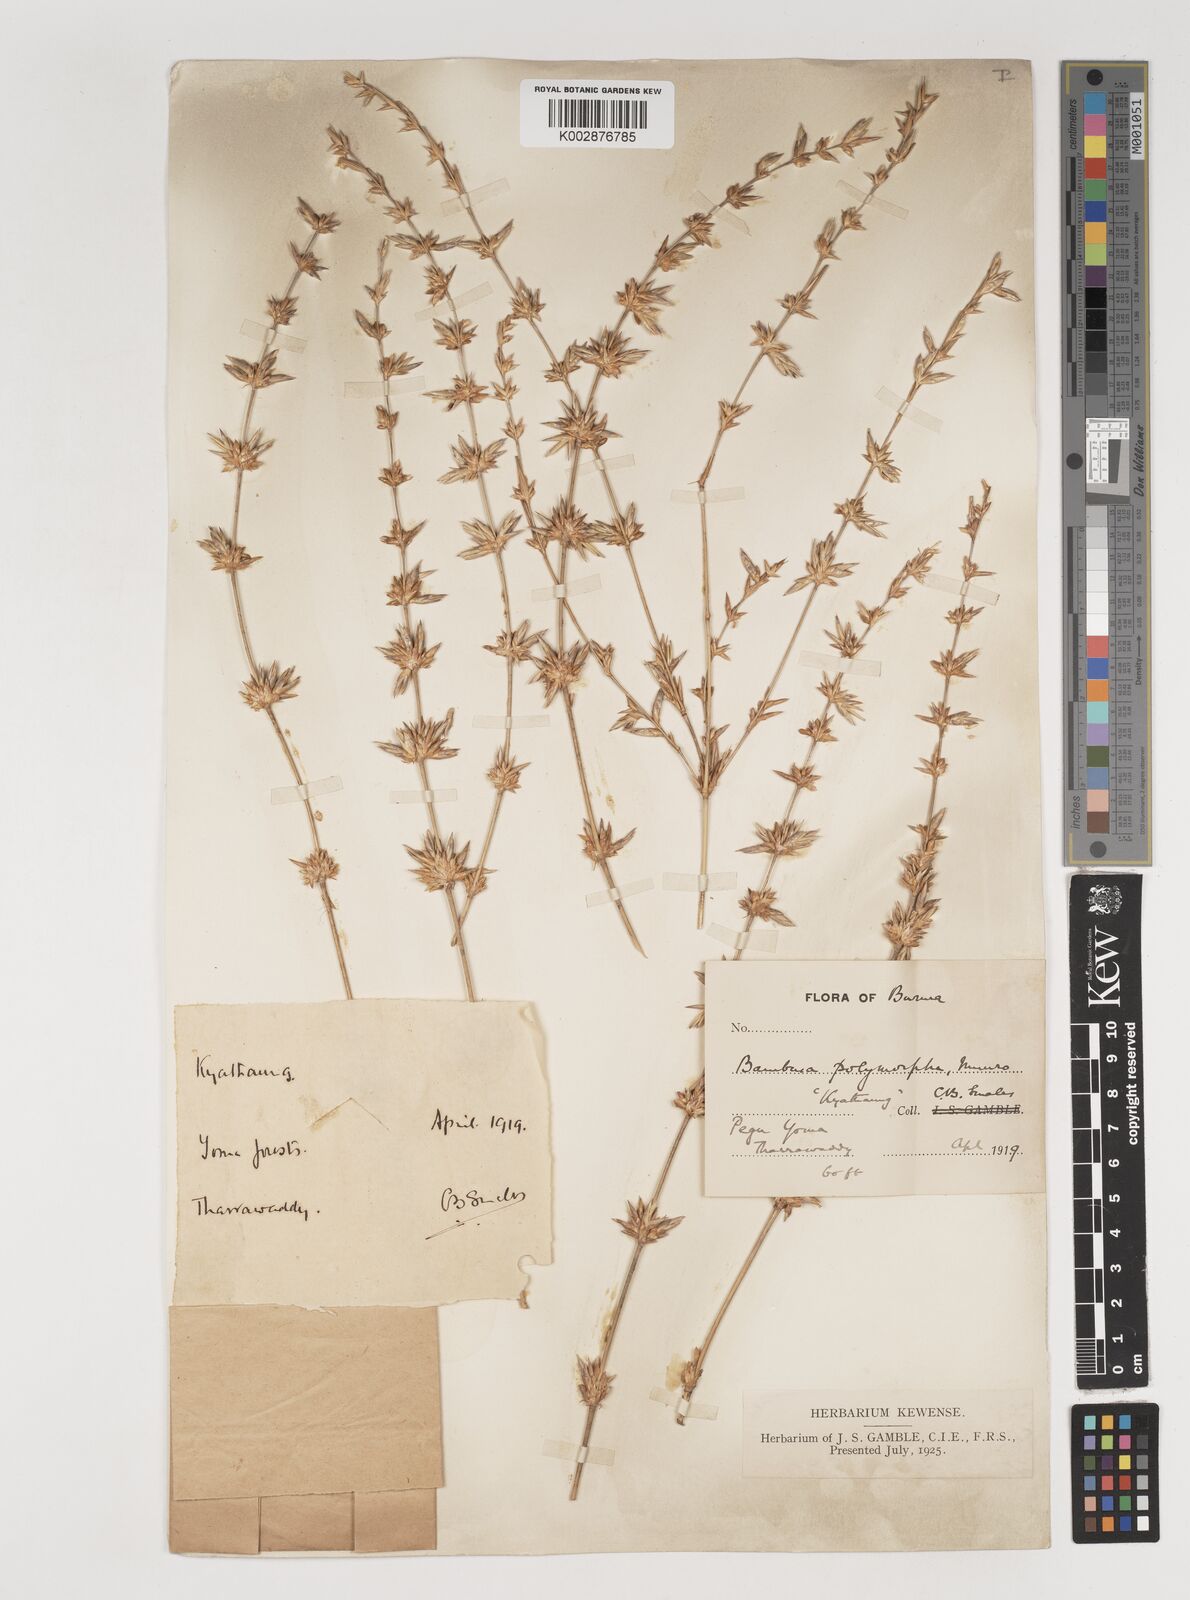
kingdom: Plantae
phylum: Tracheophyta
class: Liliopsida
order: Poales
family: Poaceae
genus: Bambusa
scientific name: Bambusa polymorpha
